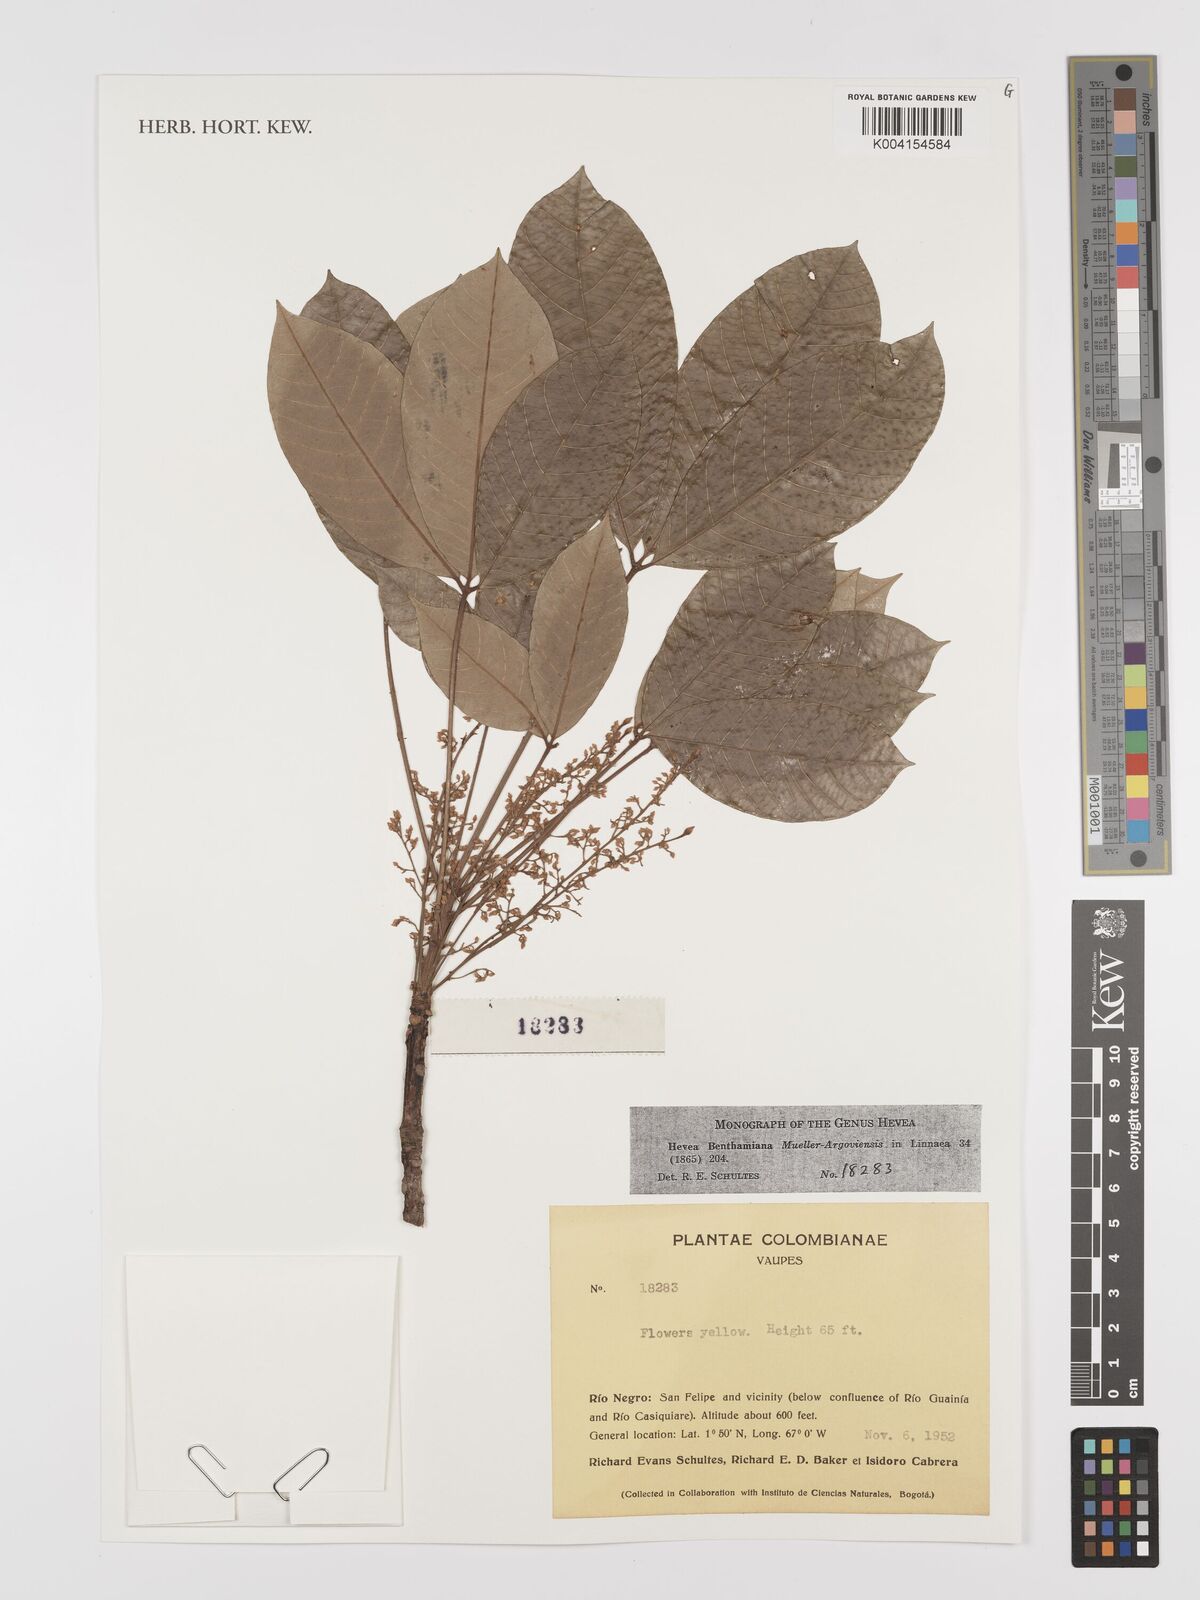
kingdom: Plantae
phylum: Tracheophyta
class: Magnoliopsida
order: Malpighiales
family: Euphorbiaceae
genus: Hevea
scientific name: Hevea benthamiana
